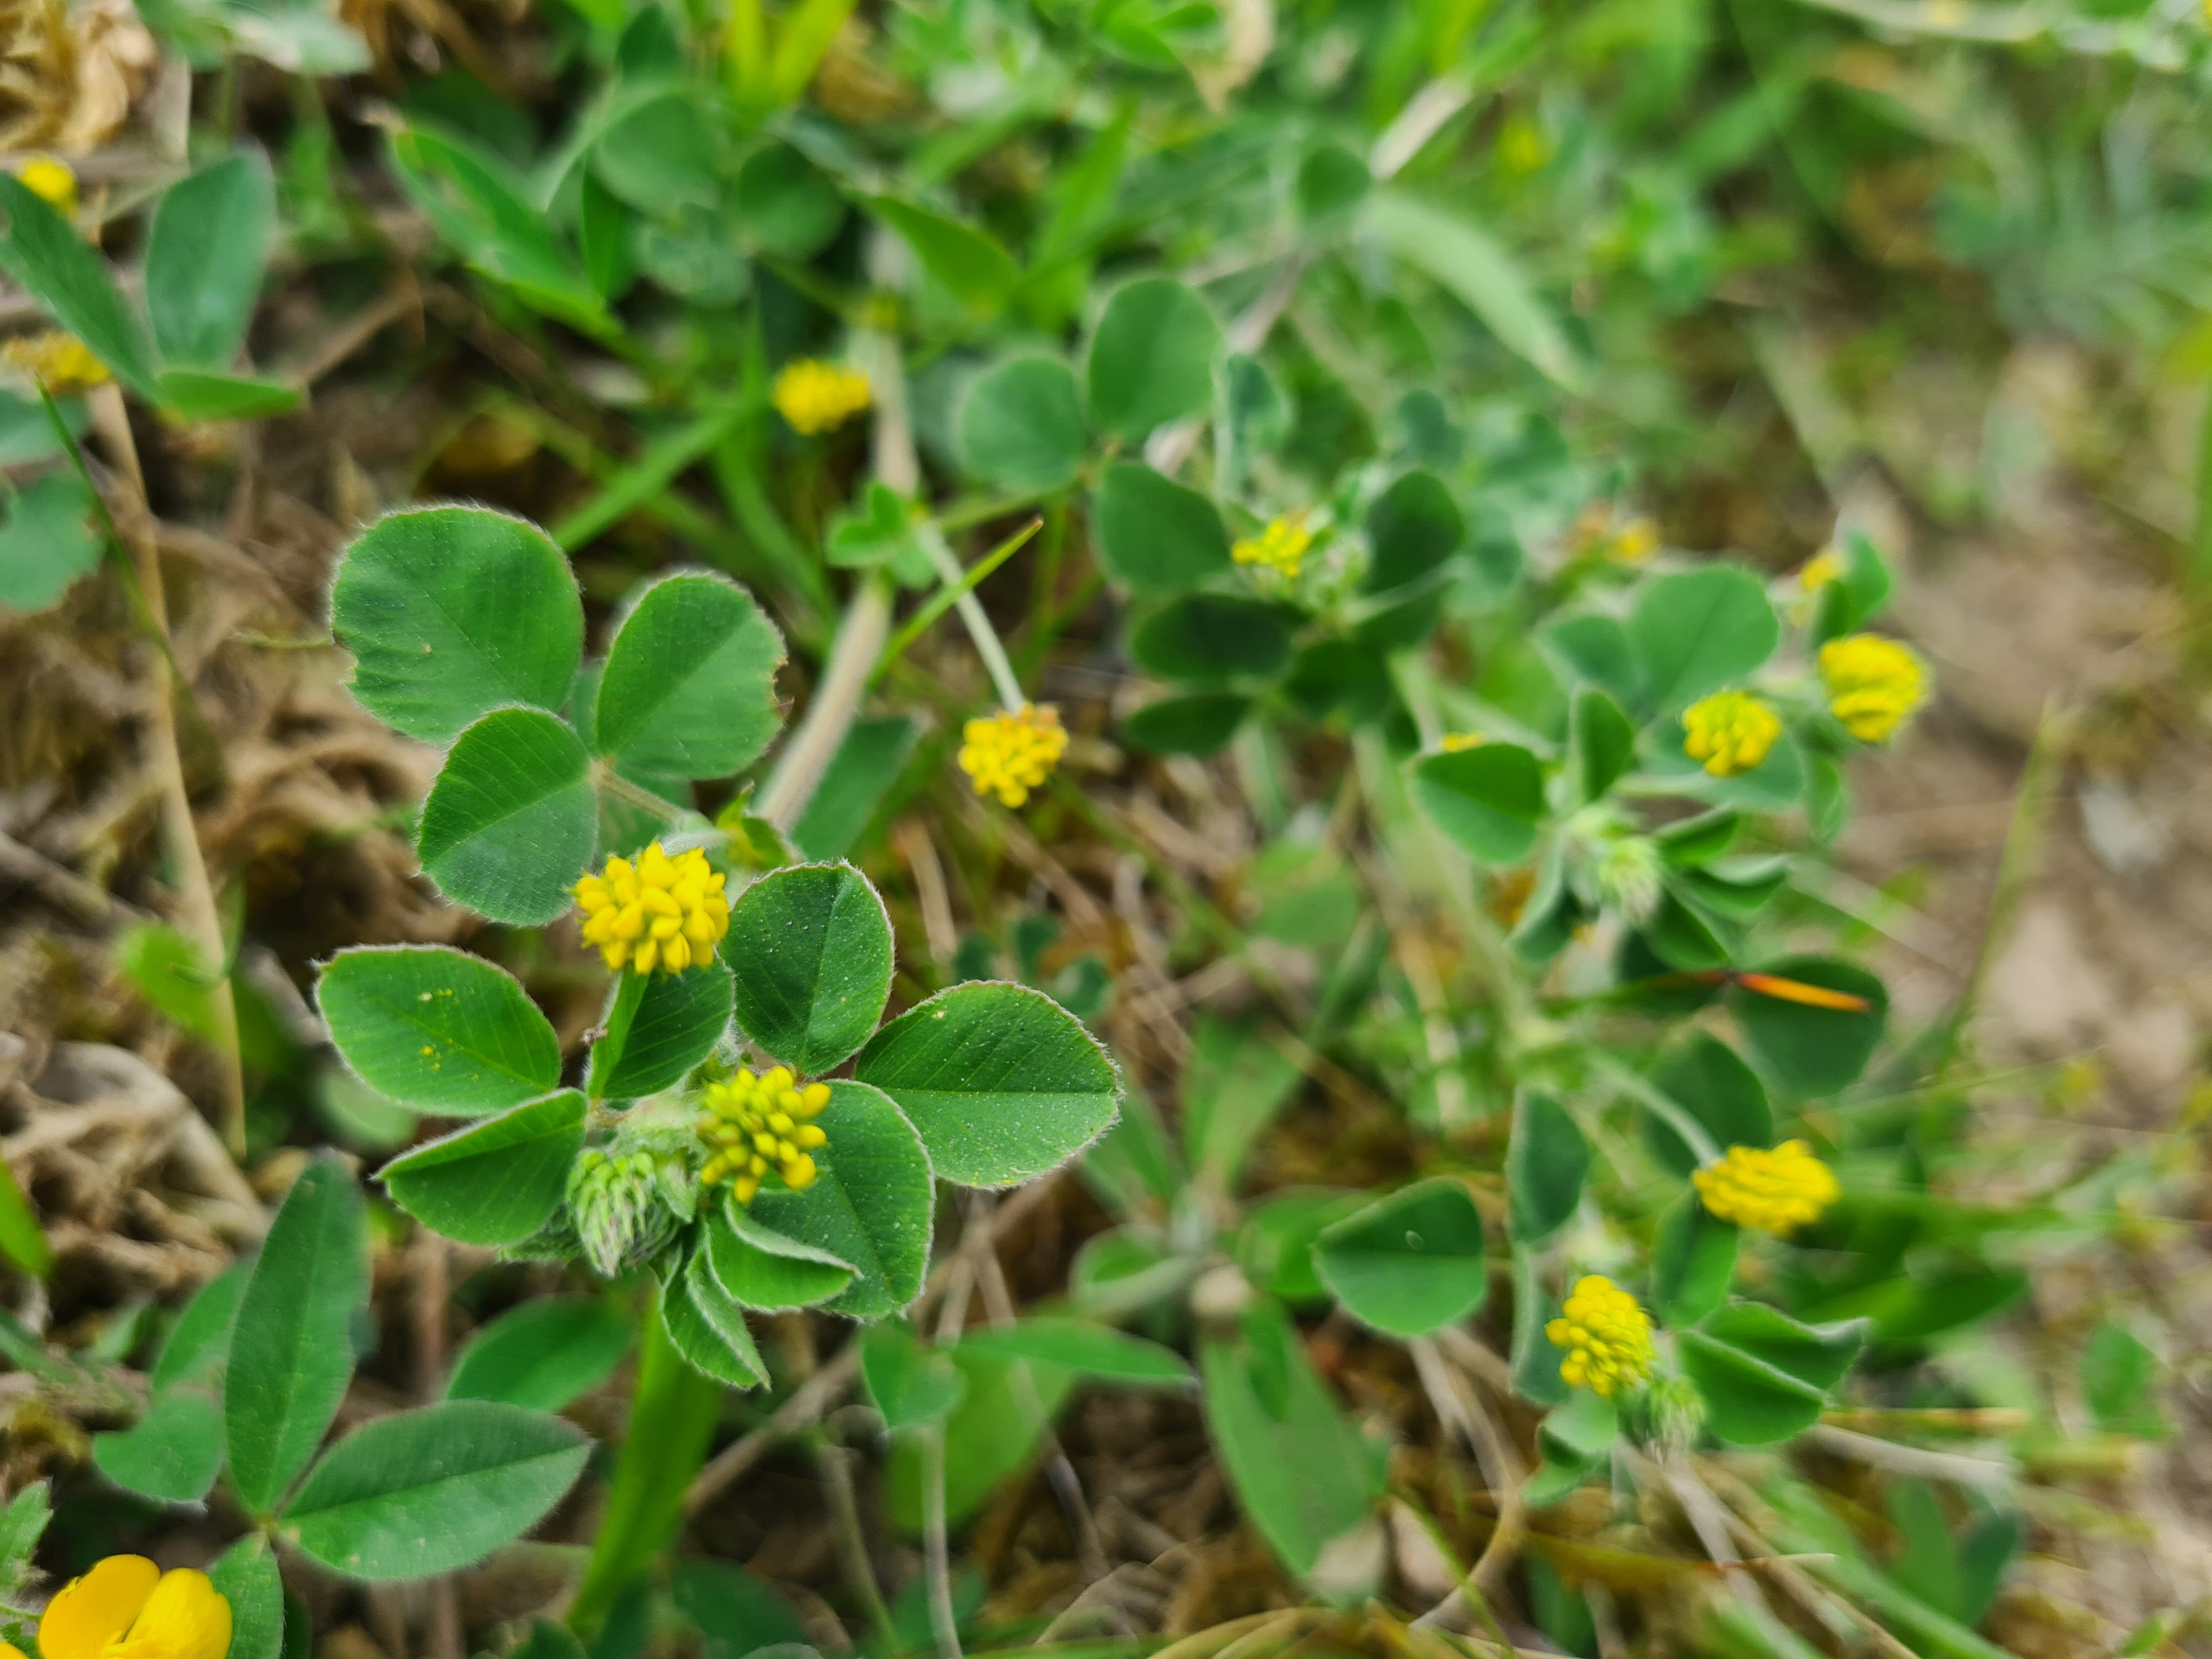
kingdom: Plantae
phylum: Tracheophyta
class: Magnoliopsida
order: Fabales
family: Fabaceae
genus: Medicago
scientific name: Medicago lupulina
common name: Humle-sneglebælg
